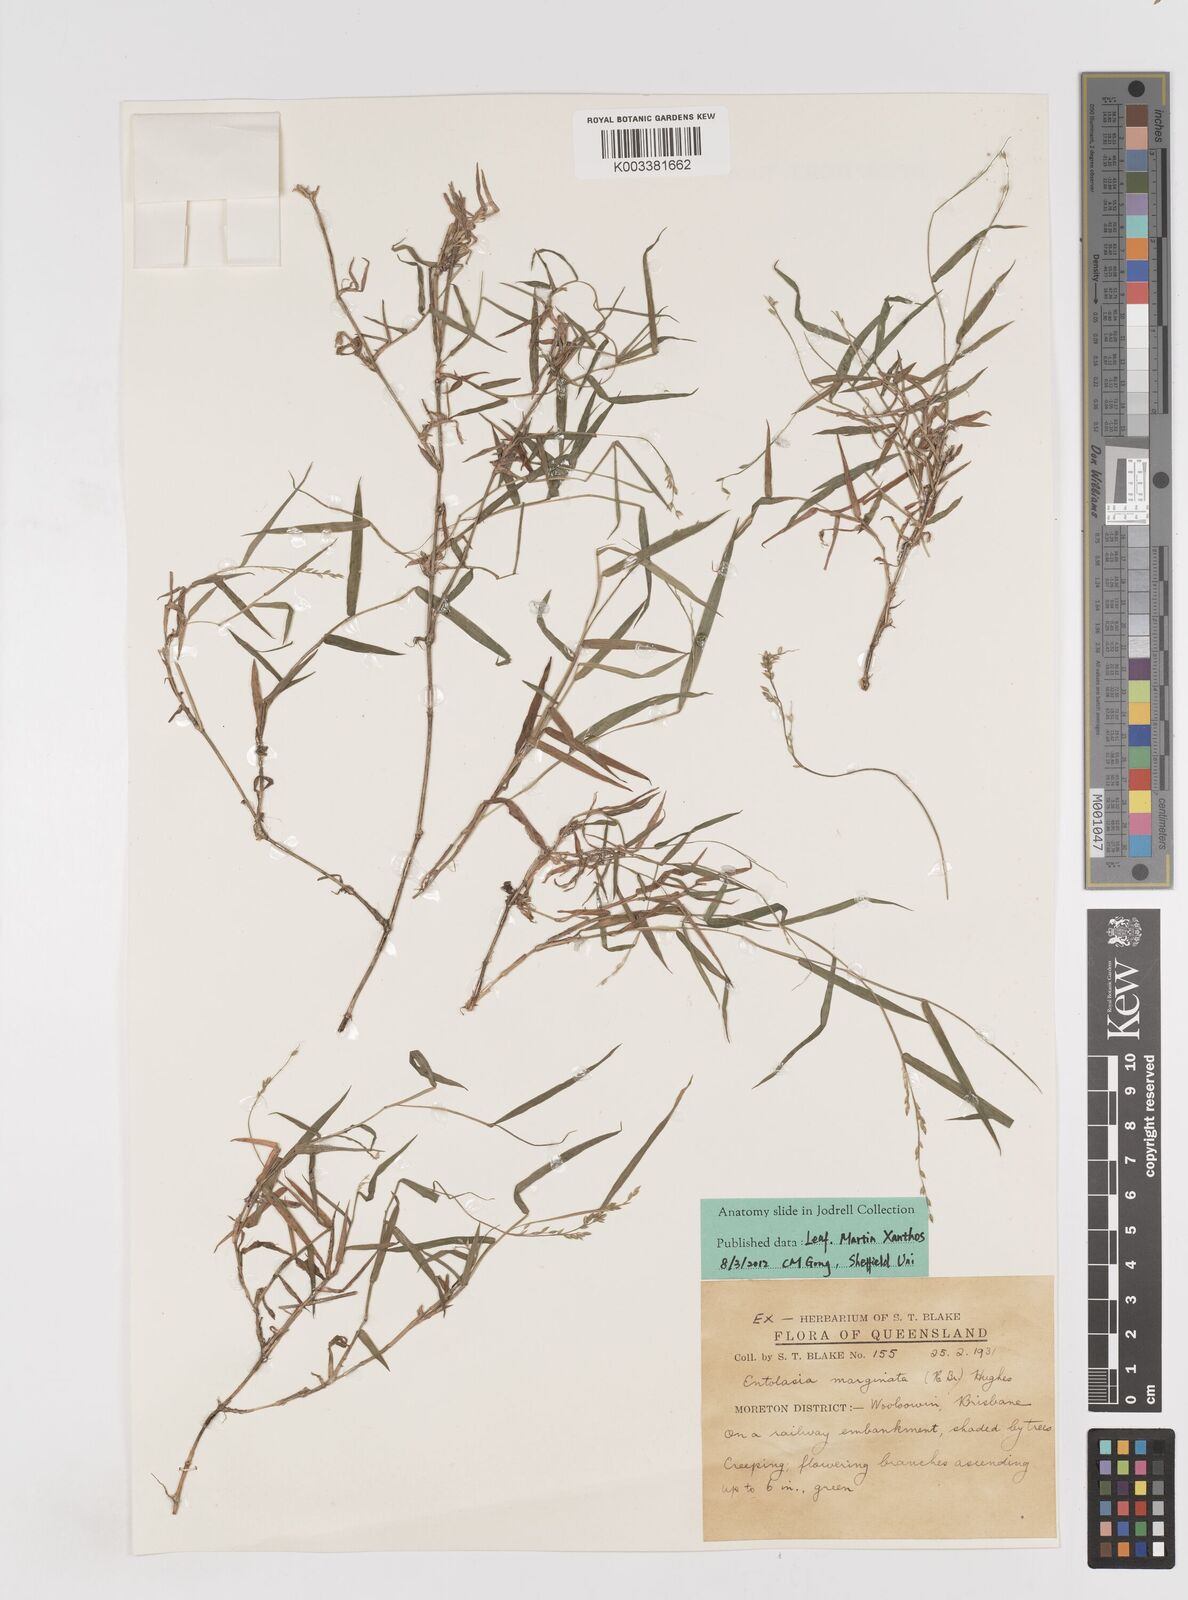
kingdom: Plantae
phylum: Tracheophyta
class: Liliopsida
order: Poales
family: Poaceae
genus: Entolasia
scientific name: Entolasia marginata
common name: Australian panicgrass
